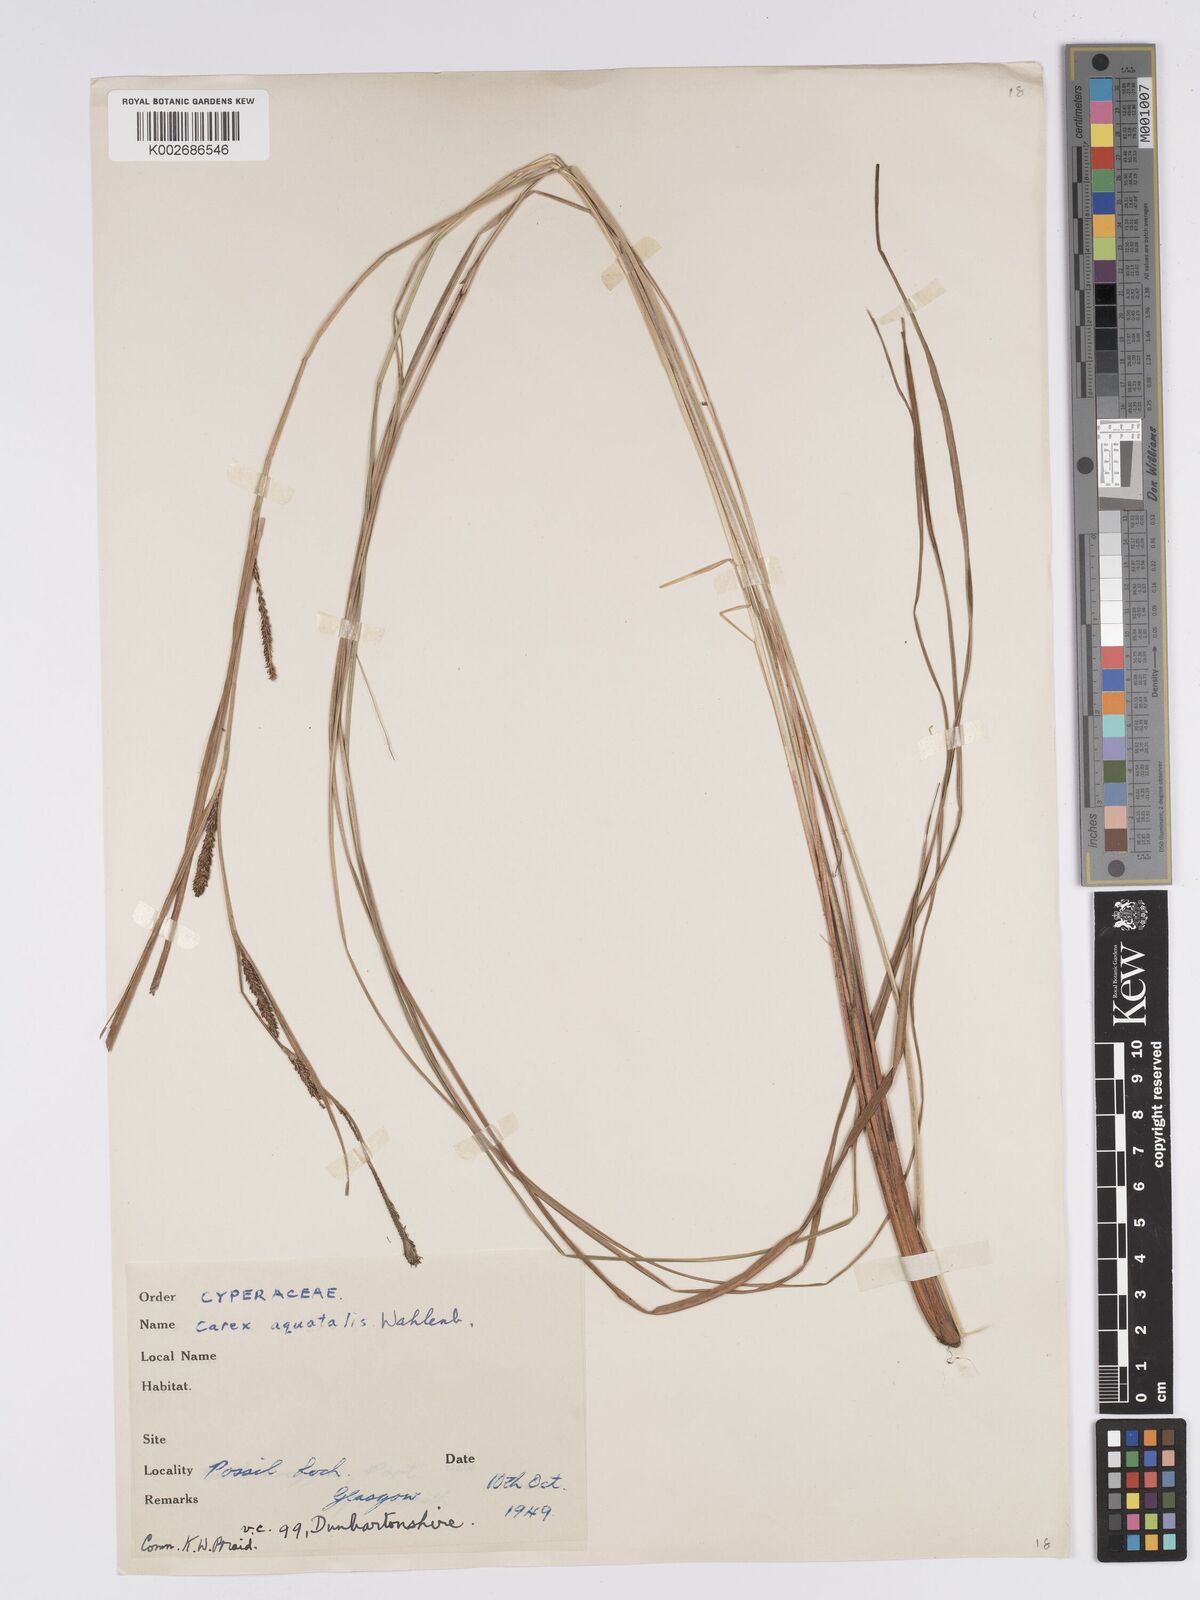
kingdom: Plantae
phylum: Tracheophyta
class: Liliopsida
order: Poales
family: Cyperaceae
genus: Carex
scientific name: Carex aquatilis
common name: Water sedge
